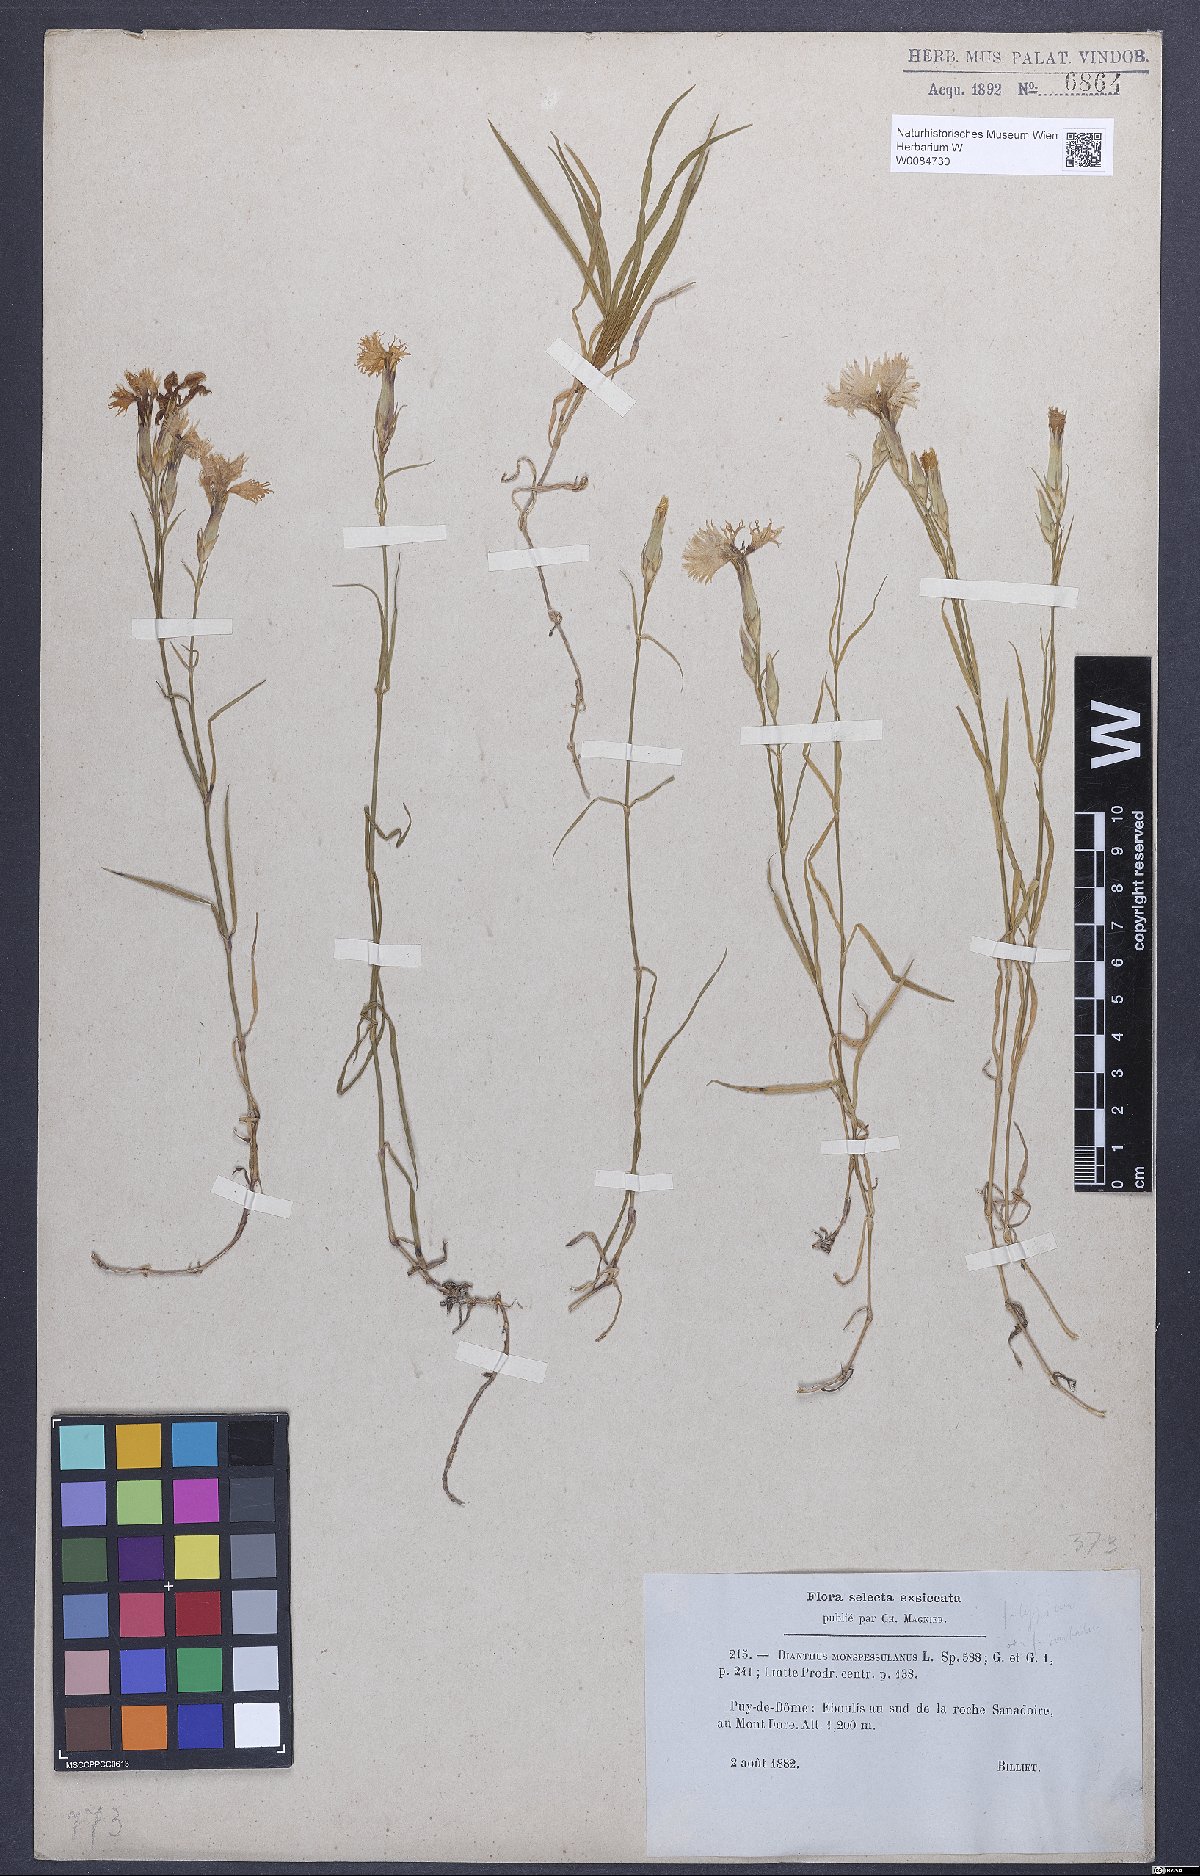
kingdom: Plantae
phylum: Tracheophyta
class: Magnoliopsida
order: Caryophyllales
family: Caryophyllaceae
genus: Dianthus
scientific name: Dianthus hyssopifolius
